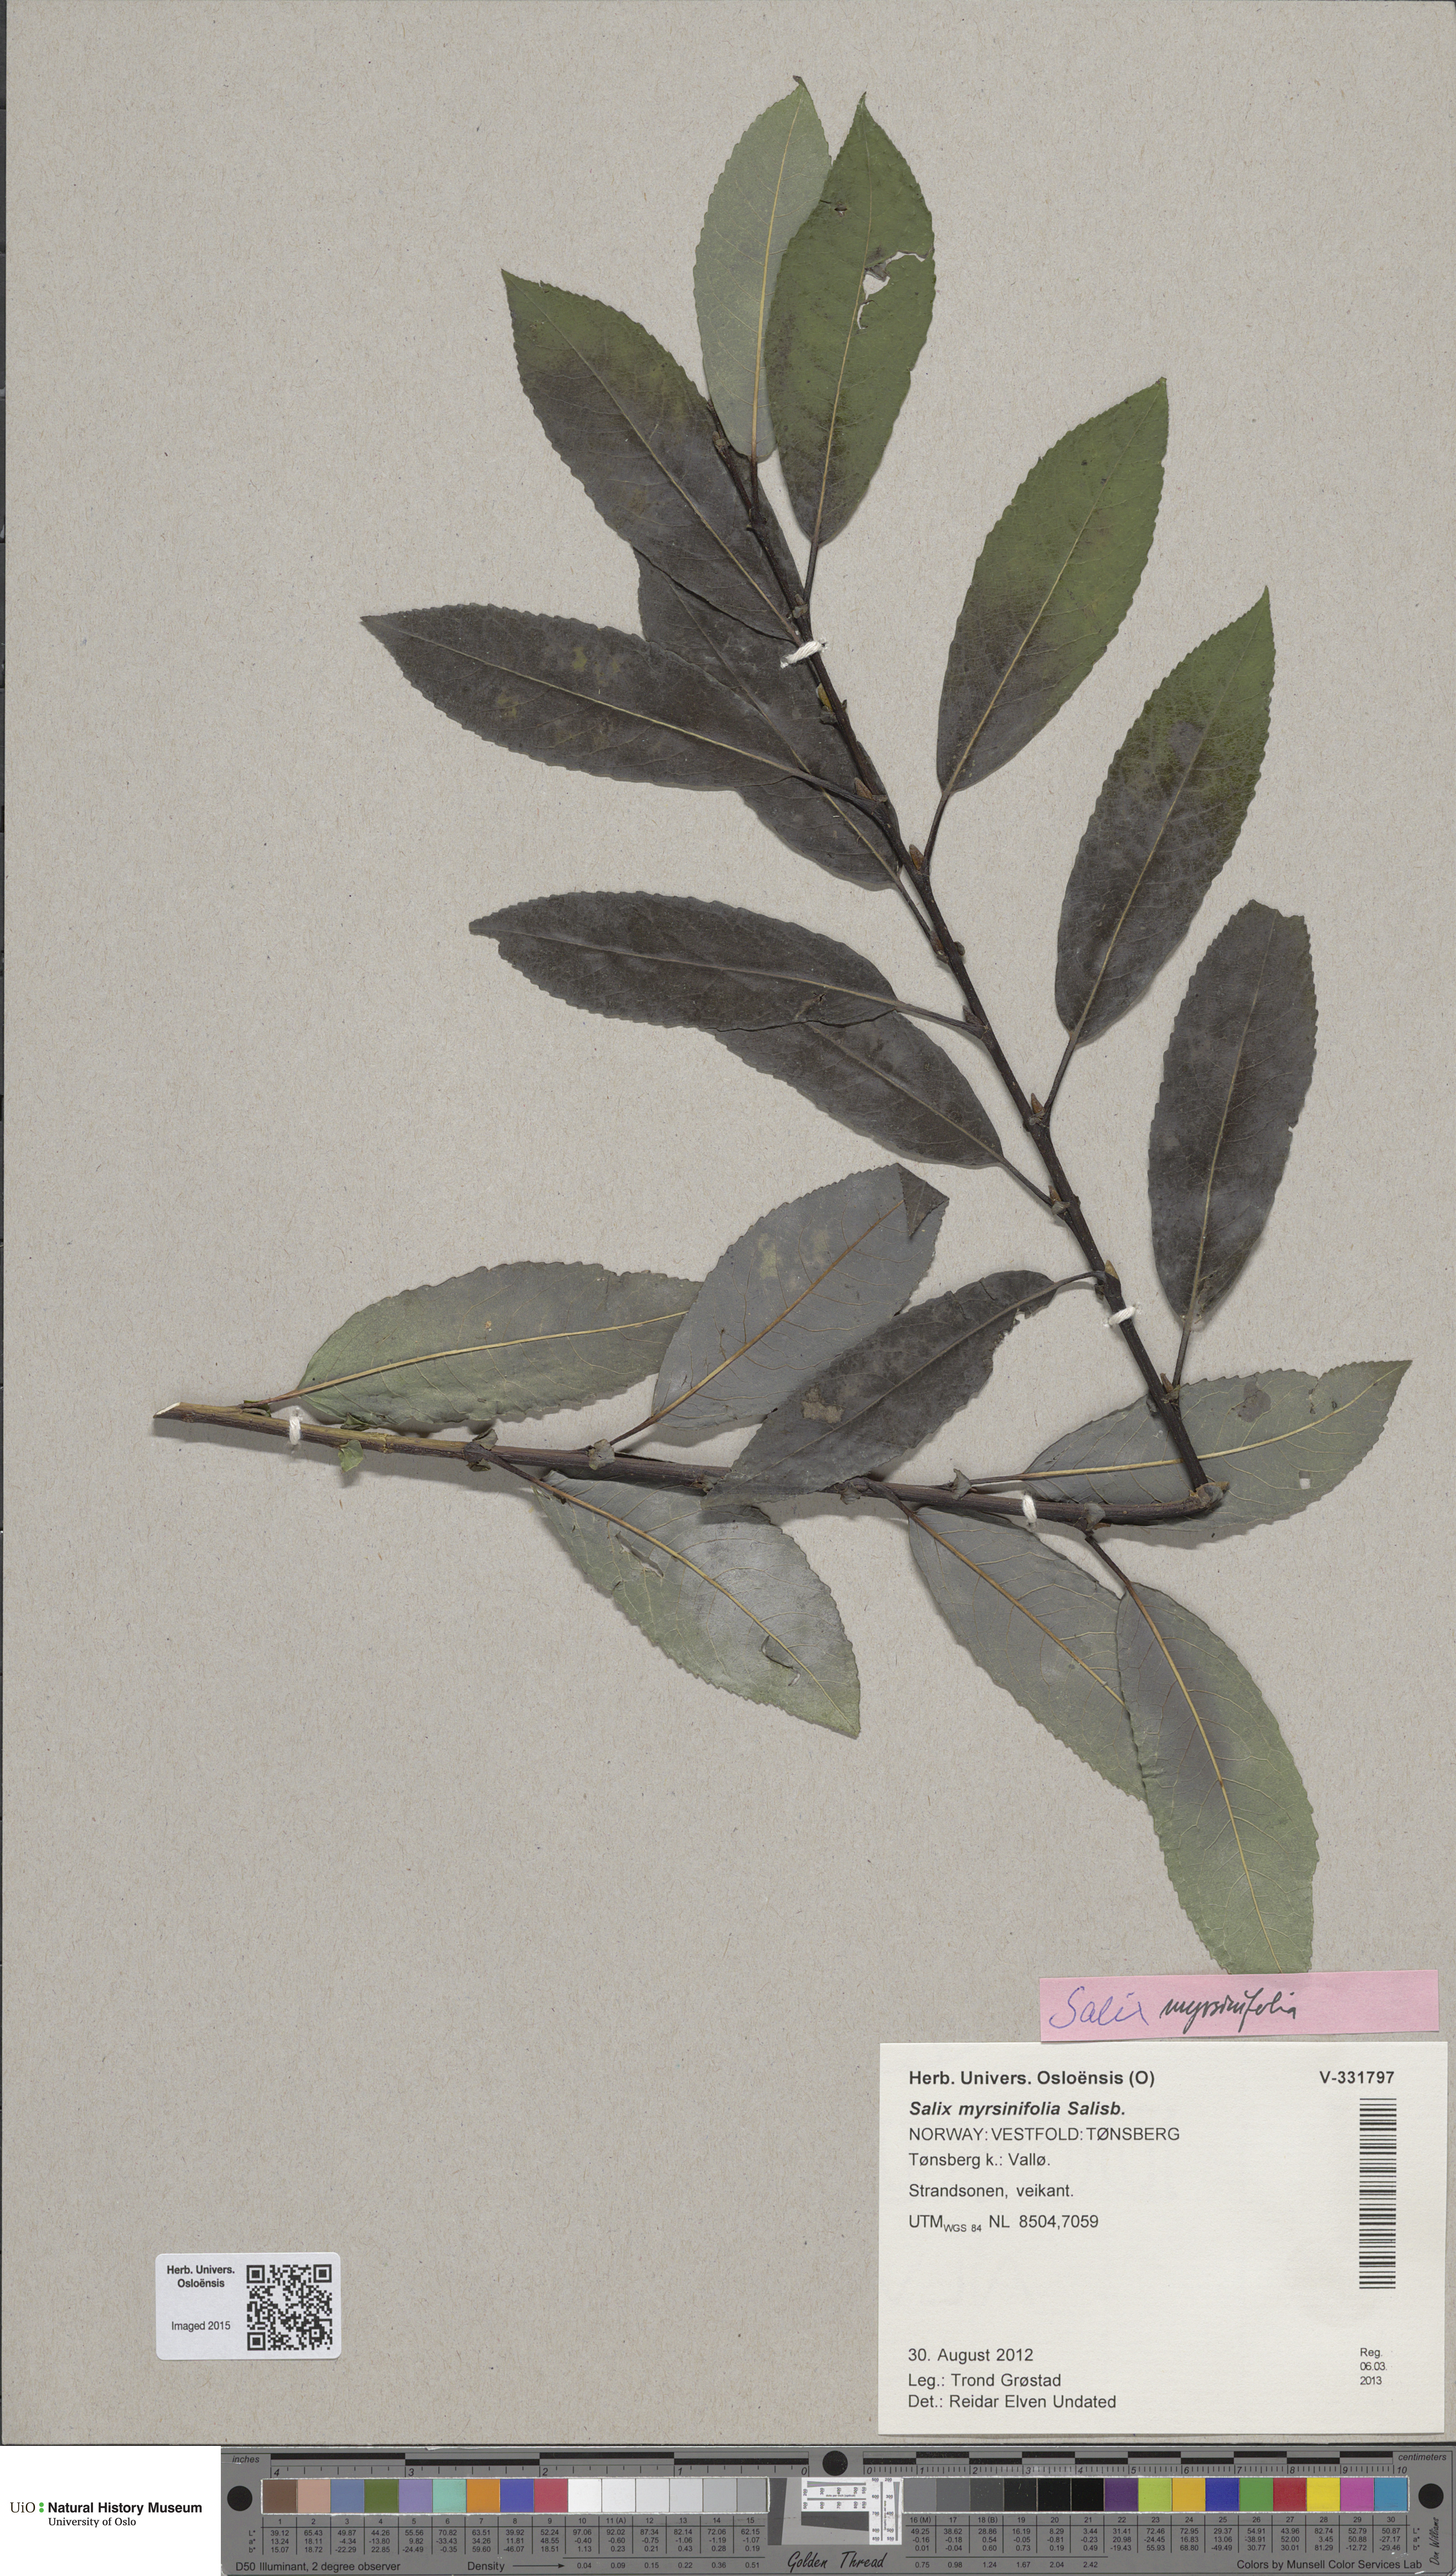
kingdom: Plantae
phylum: Tracheophyta
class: Magnoliopsida
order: Malpighiales
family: Salicaceae
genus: Salix
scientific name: Salix myrsinifolia
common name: Dark-leaved willow
